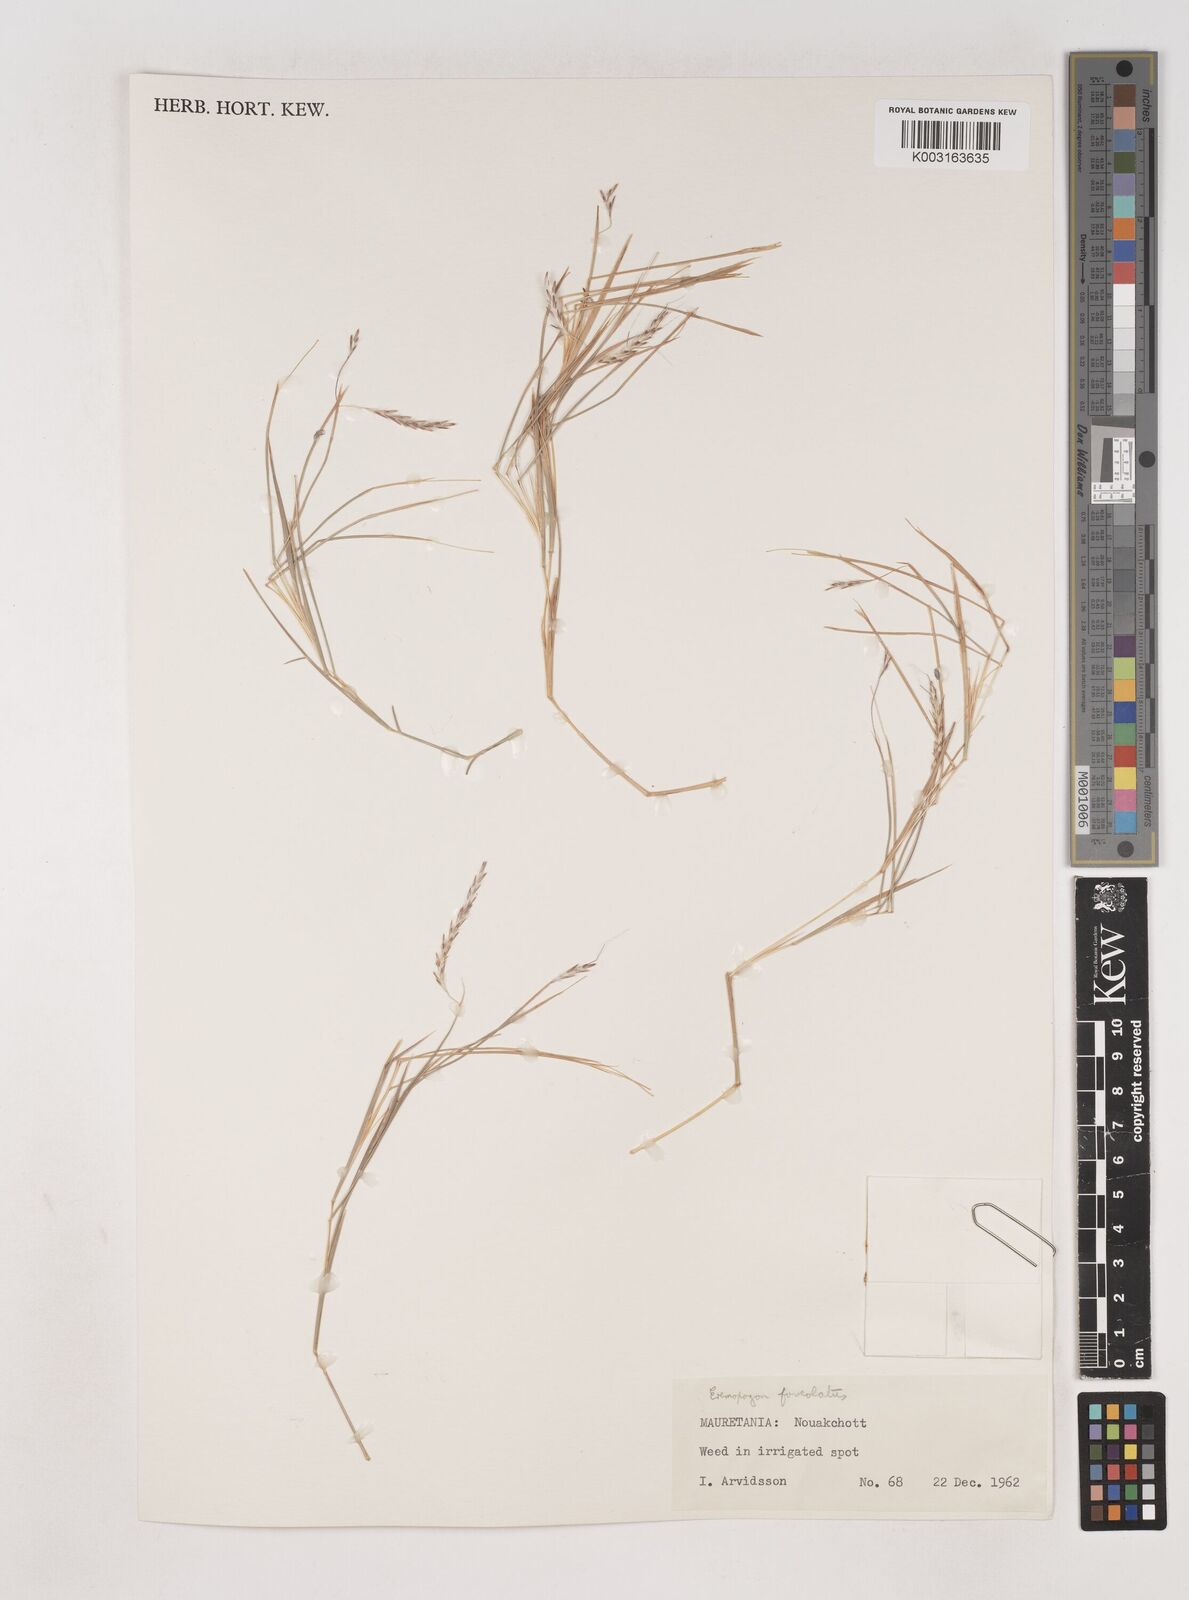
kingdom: Plantae
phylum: Tracheophyta
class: Liliopsida
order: Poales
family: Poaceae
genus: Dichanthium
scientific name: Dichanthium foveolatum
